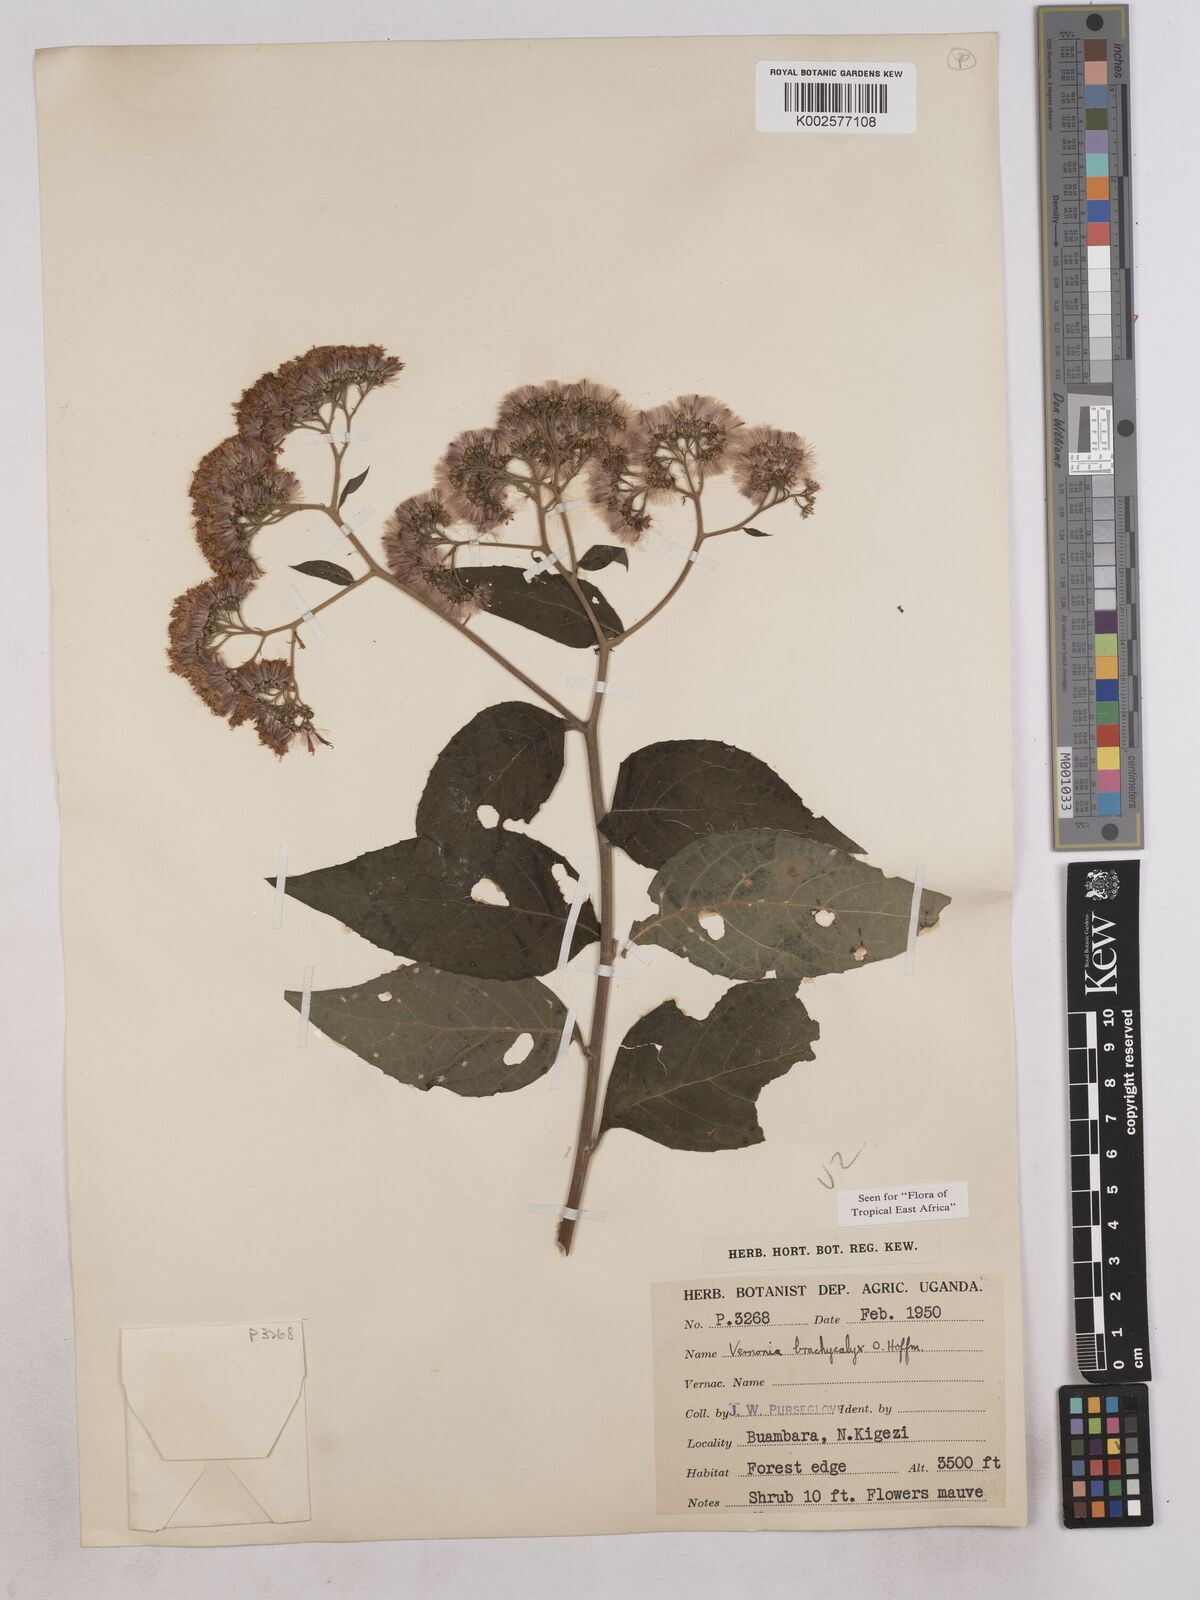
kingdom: Plantae
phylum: Tracheophyta
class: Magnoliopsida
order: Asterales
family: Asteraceae
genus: Hoffmannanthus
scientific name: Hoffmannanthus abbotianus
